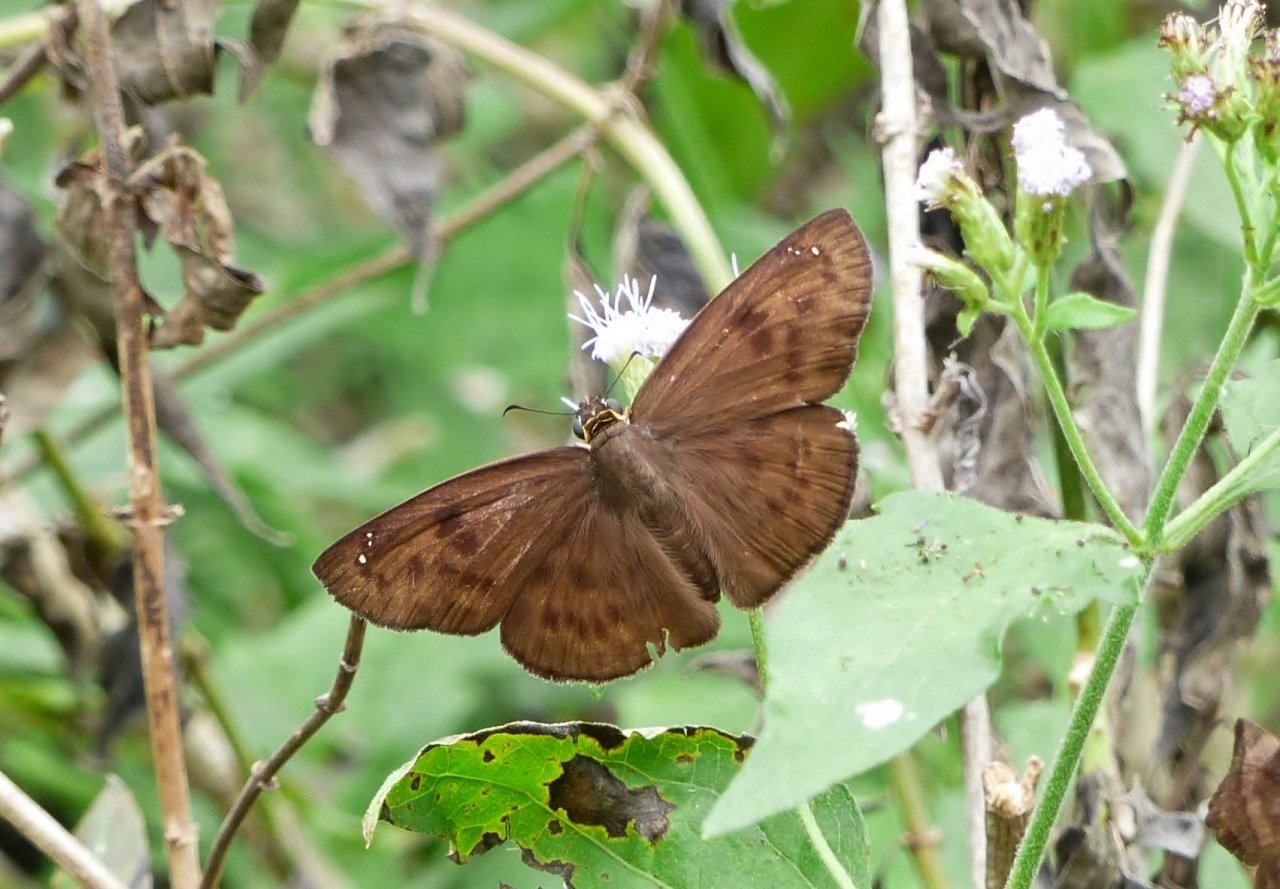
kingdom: Animalia
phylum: Arthropoda
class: Insecta
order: Lepidoptera
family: Hesperiidae
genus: Grais
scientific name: Grais stigmaticus
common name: Hermit Skipper
